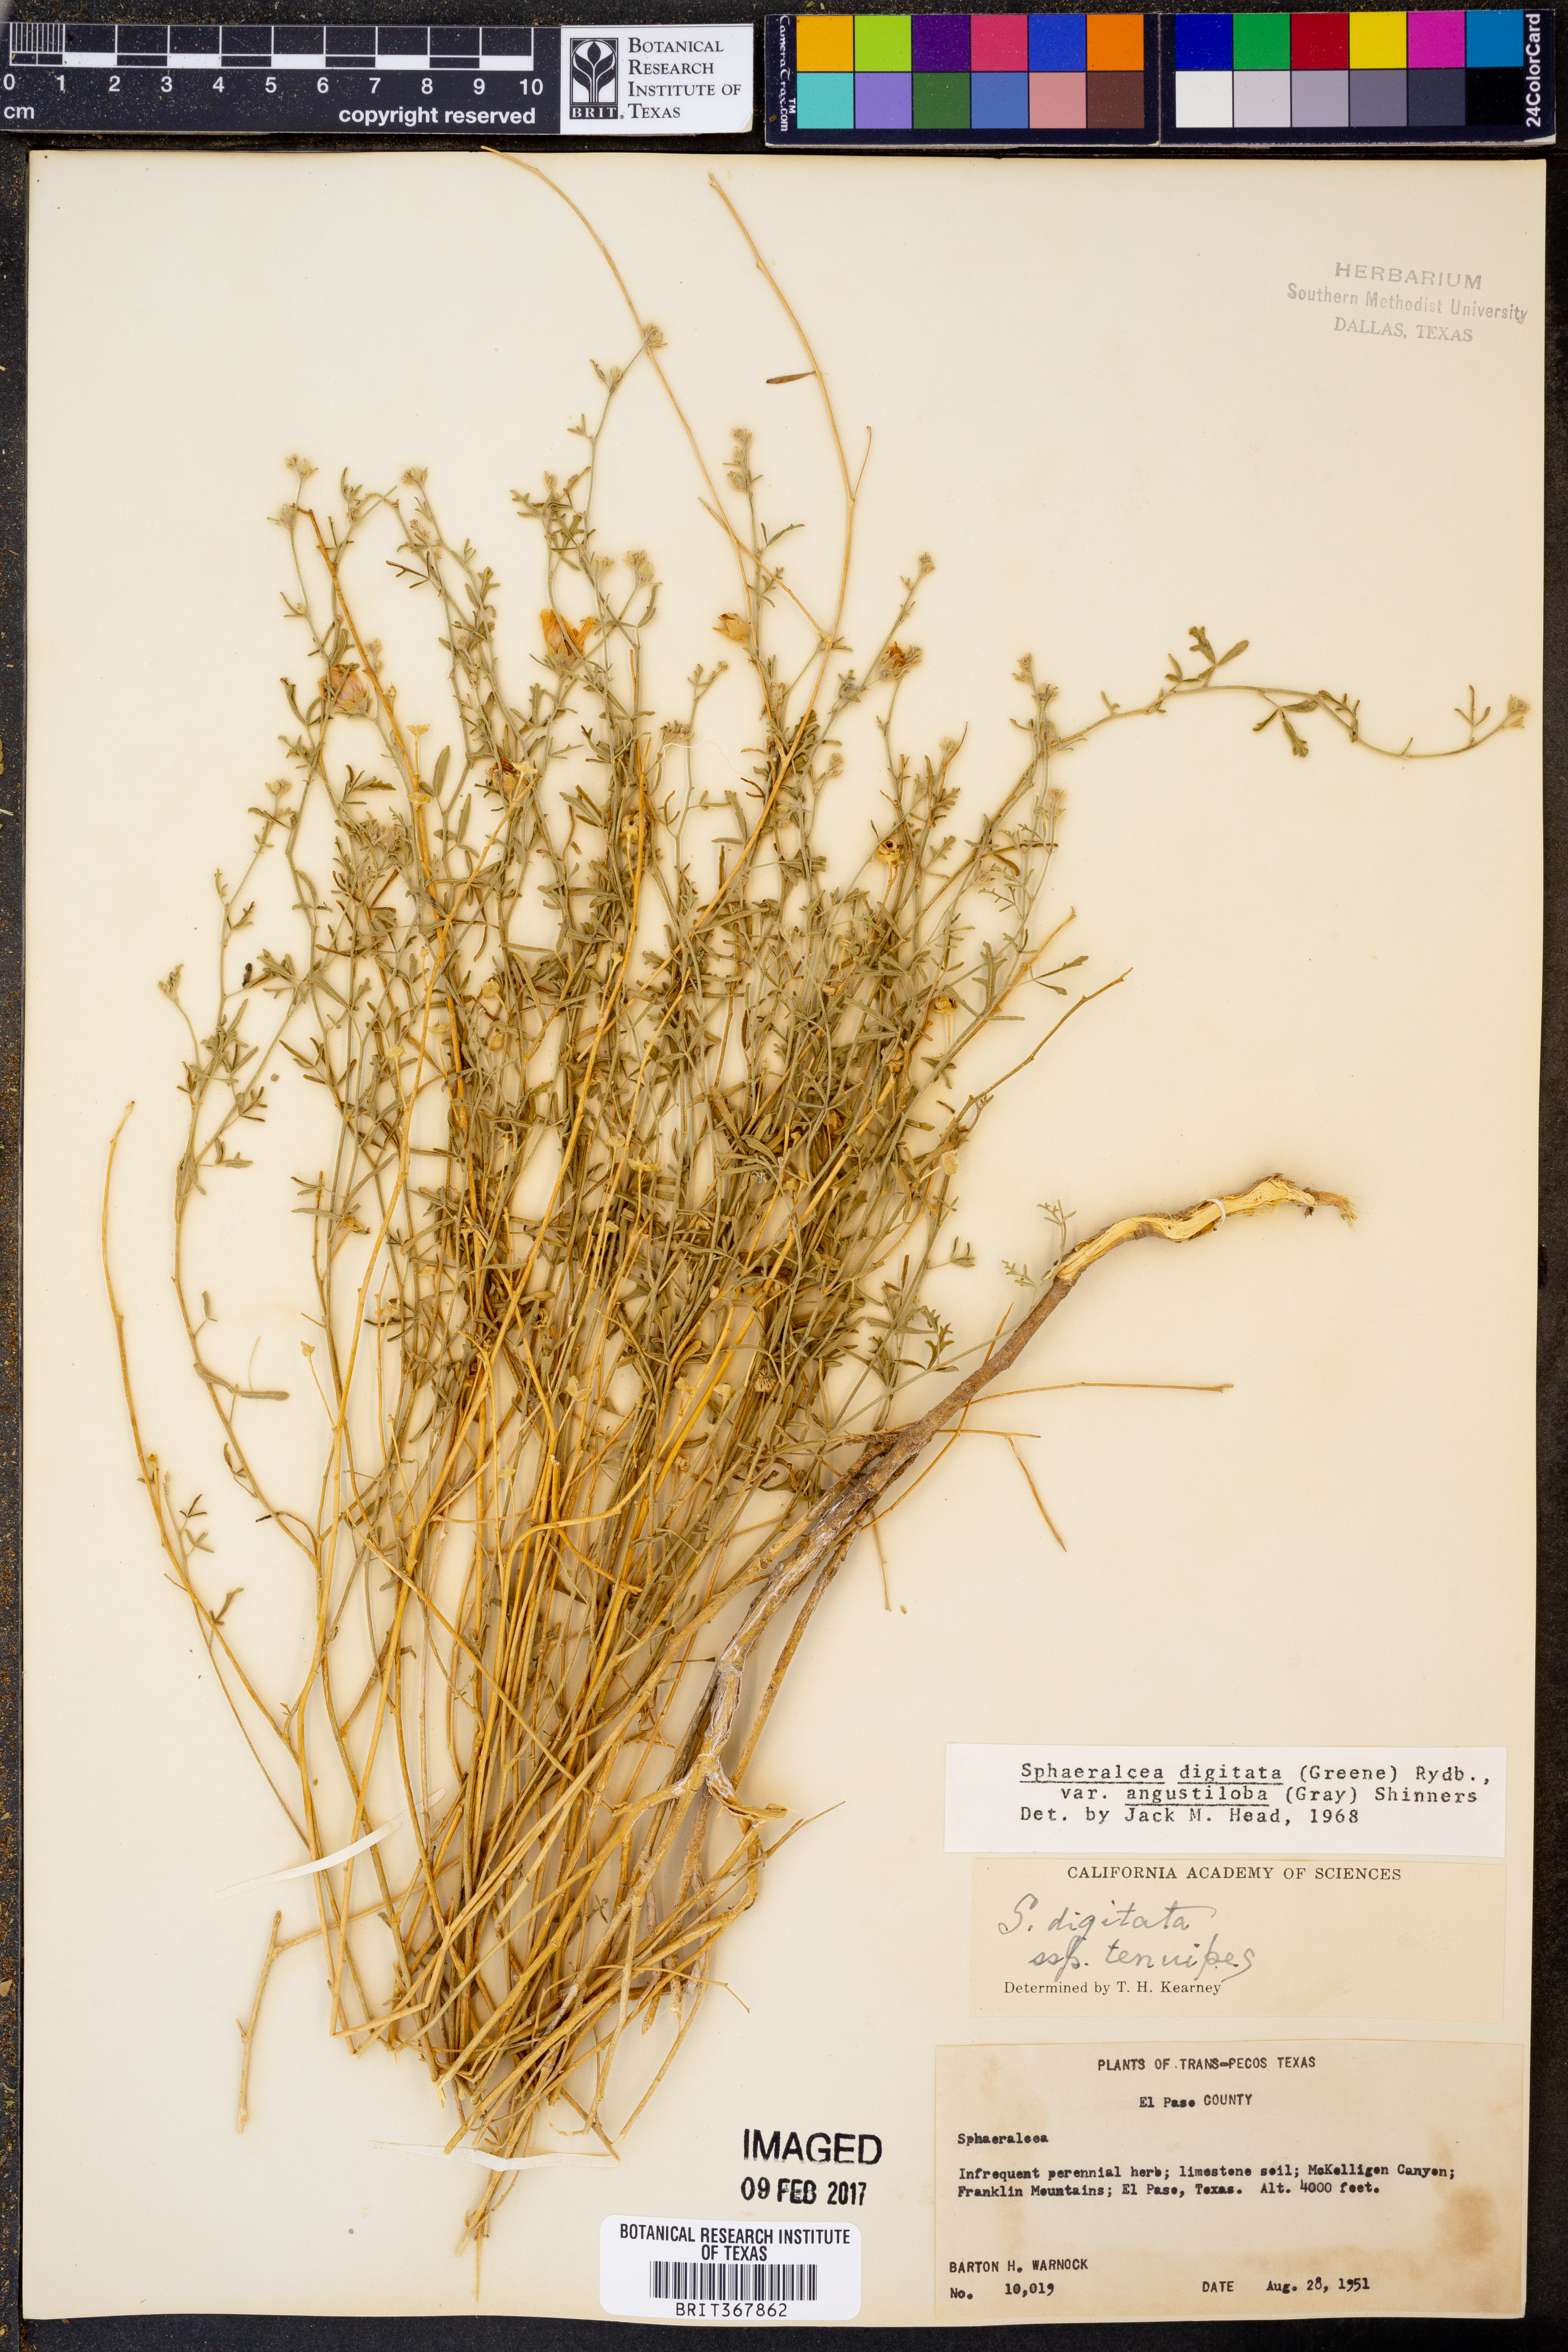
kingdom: Plantae
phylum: Tracheophyta
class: Magnoliopsida
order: Malvales
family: Malvaceae
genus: Sphaeralcea
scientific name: Sphaeralcea digitata
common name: Juniper-gobe-mallow
